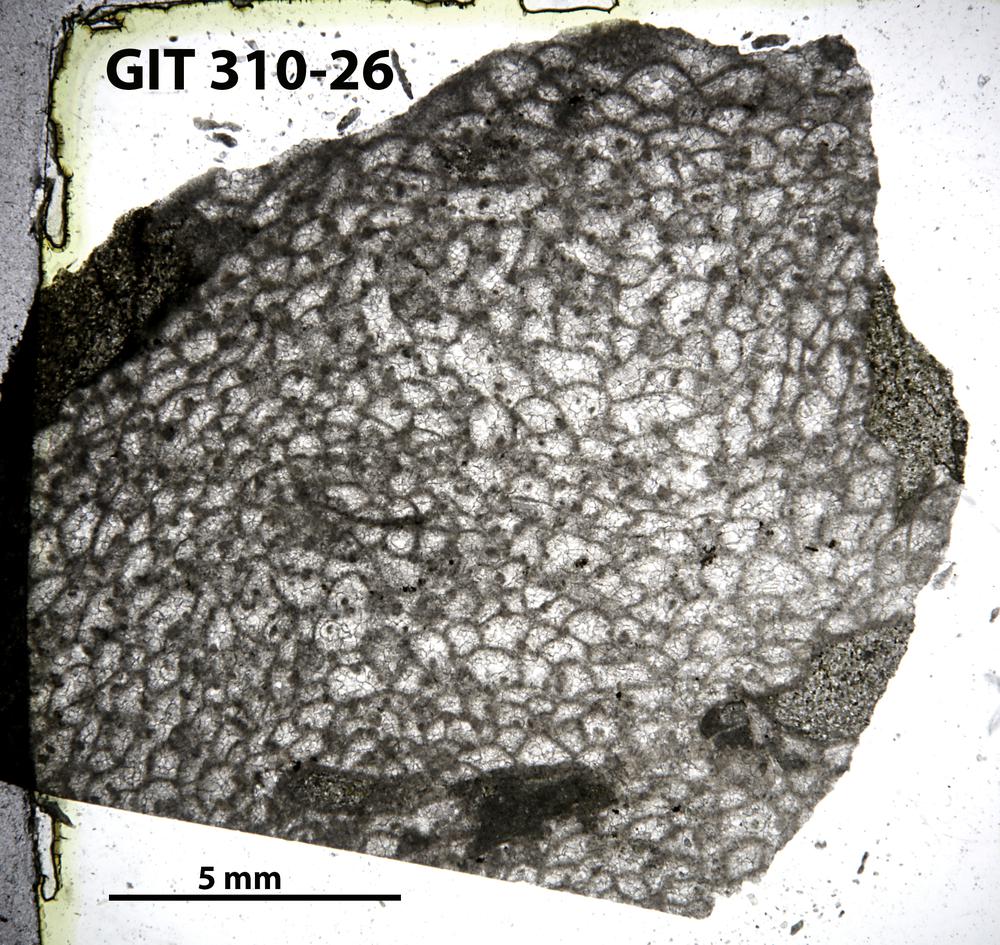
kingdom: Animalia
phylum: Porifera
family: Labechiidae
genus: Labechia
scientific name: Labechia
